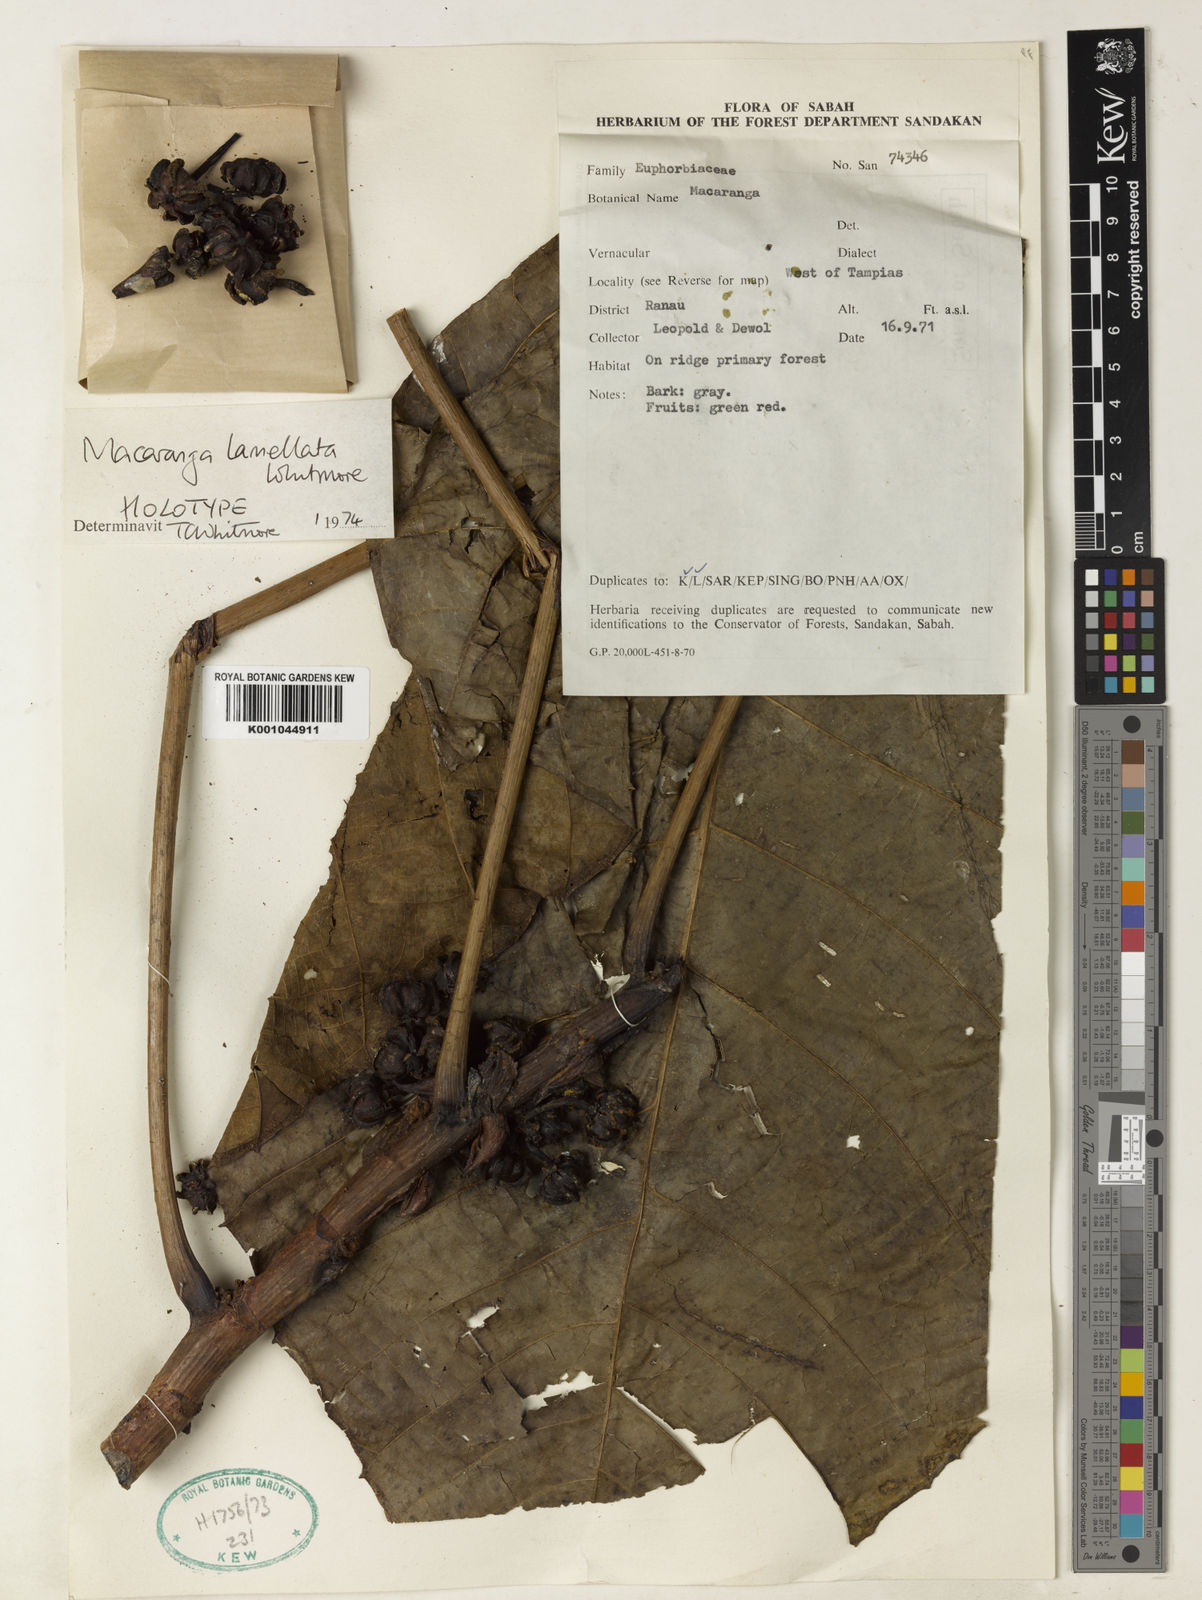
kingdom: Plantae
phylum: Tracheophyta
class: Magnoliopsida
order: Malpighiales
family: Euphorbiaceae
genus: Macaranga
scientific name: Macaranga lamellata
